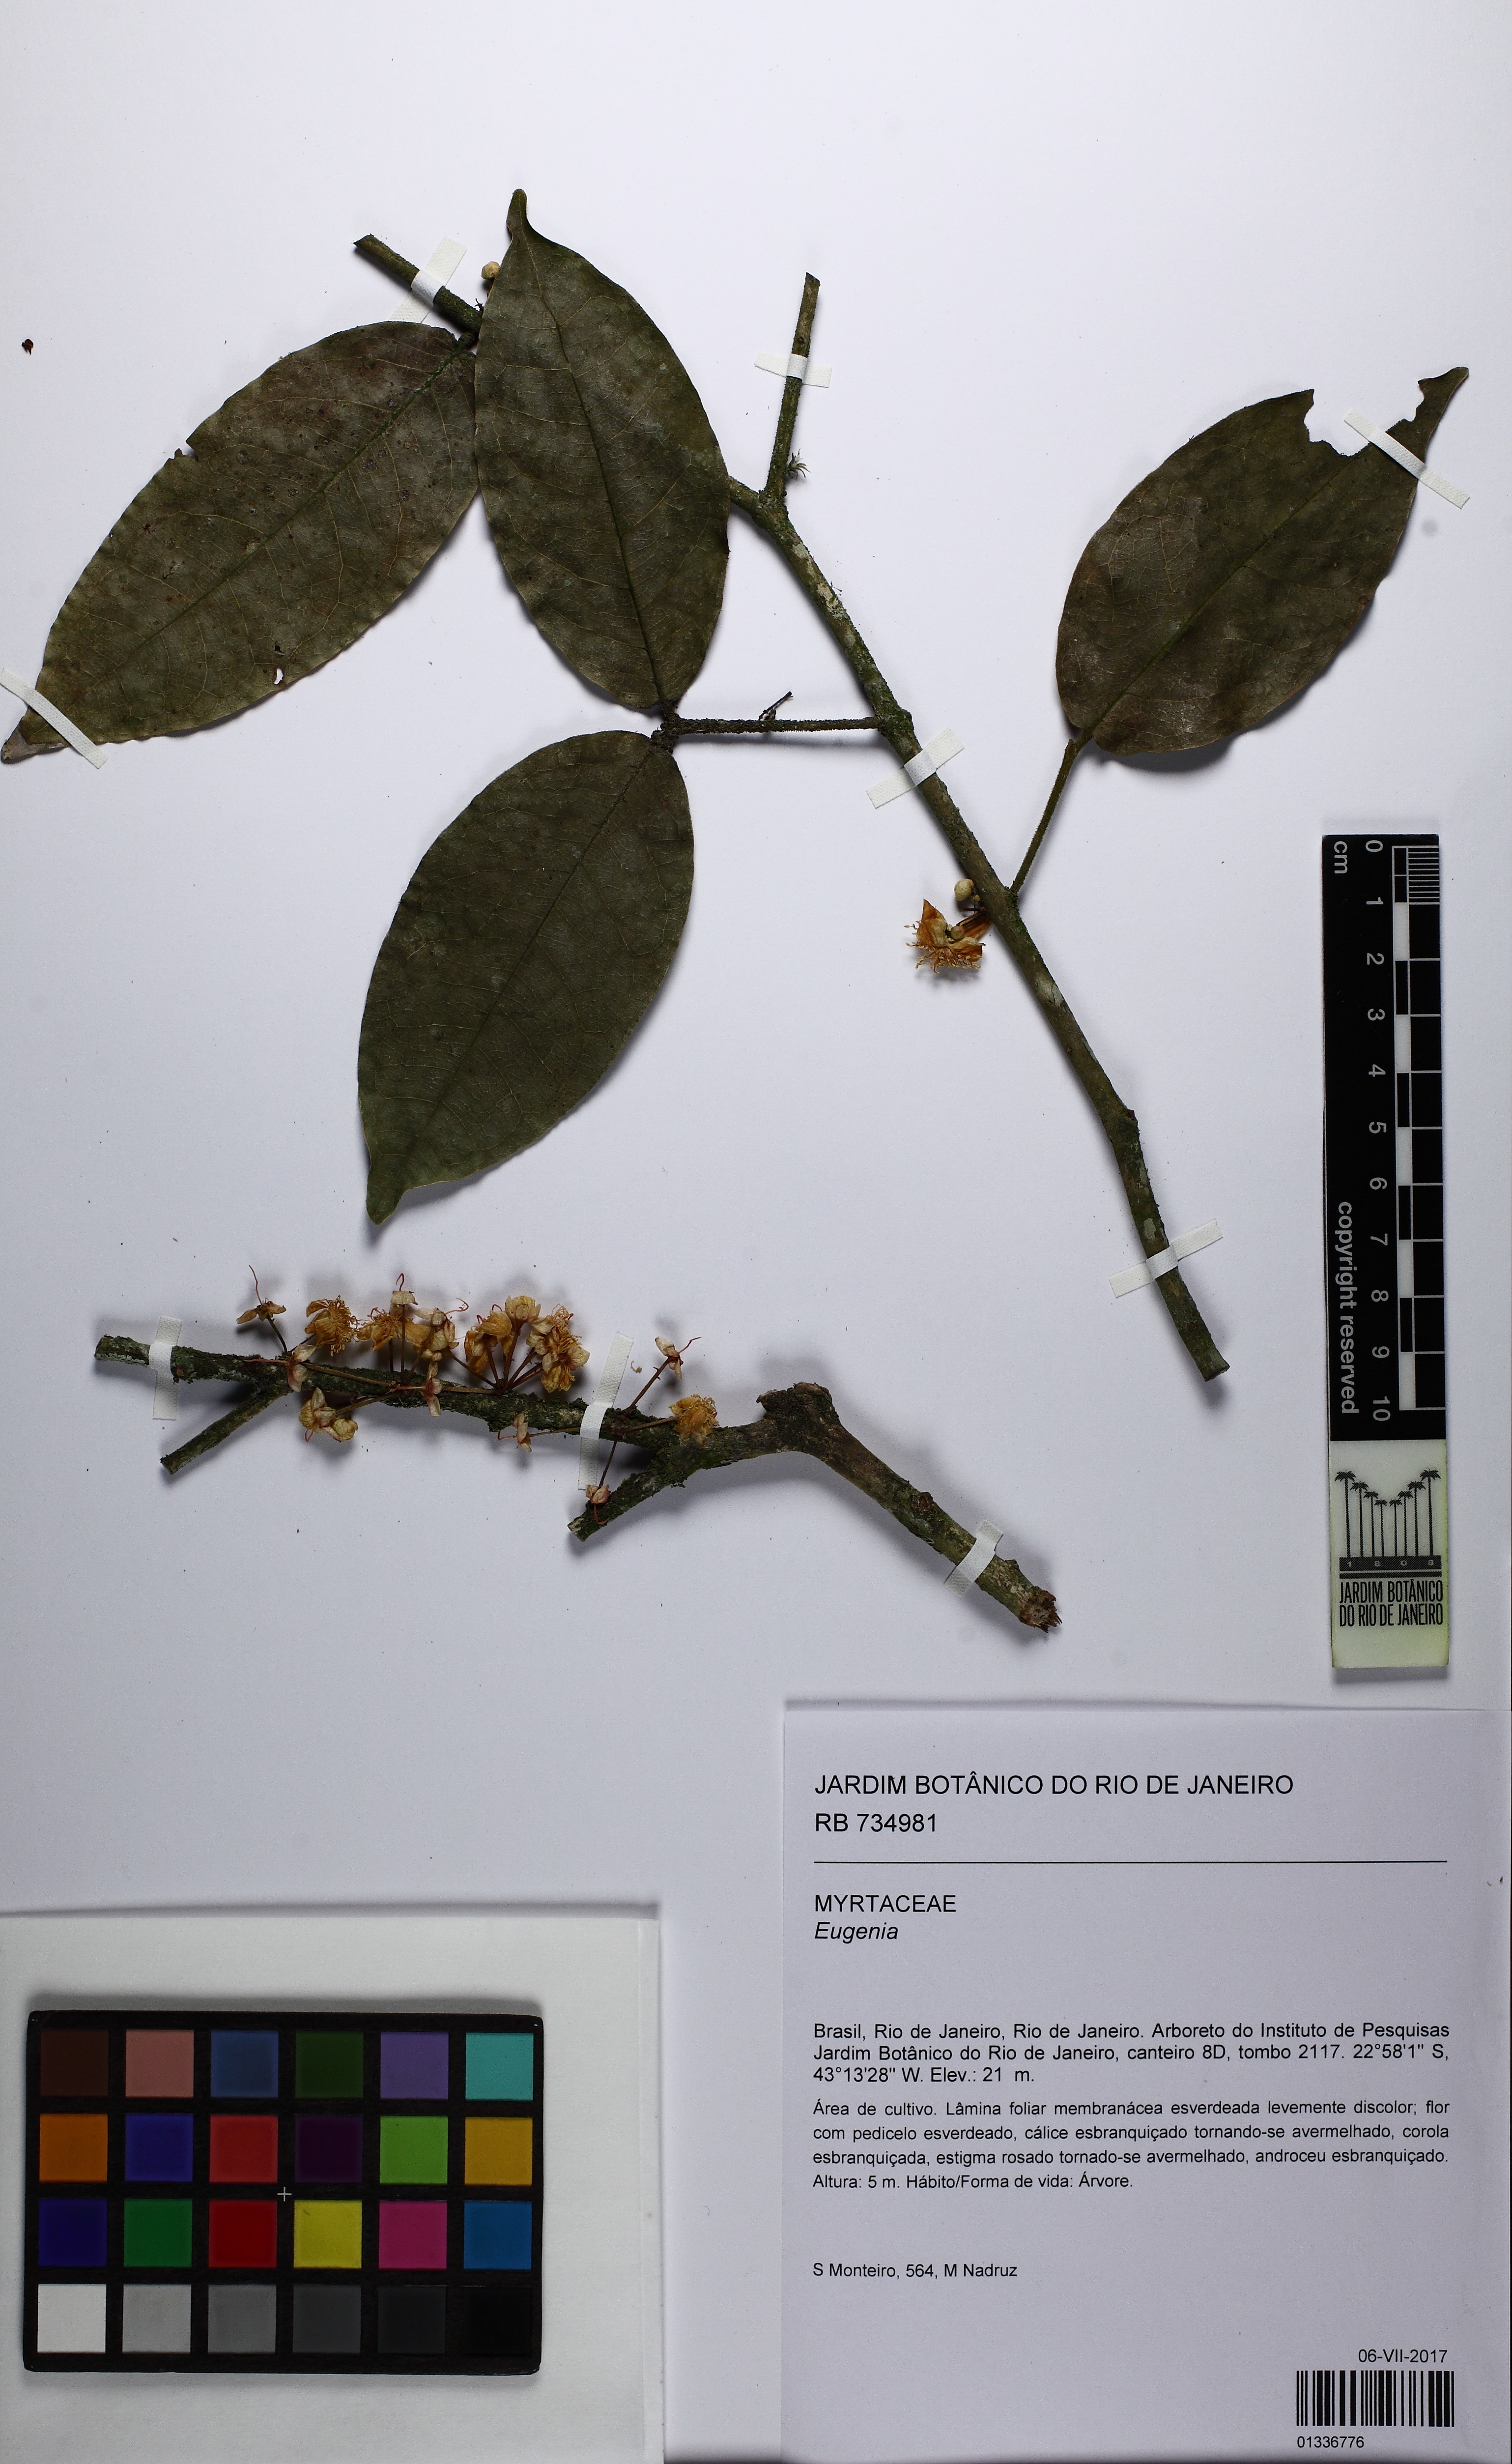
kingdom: Plantae
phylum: Tracheophyta
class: Magnoliopsida
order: Myrtales
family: Myrtaceae
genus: Eugenia
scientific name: Eugenia
